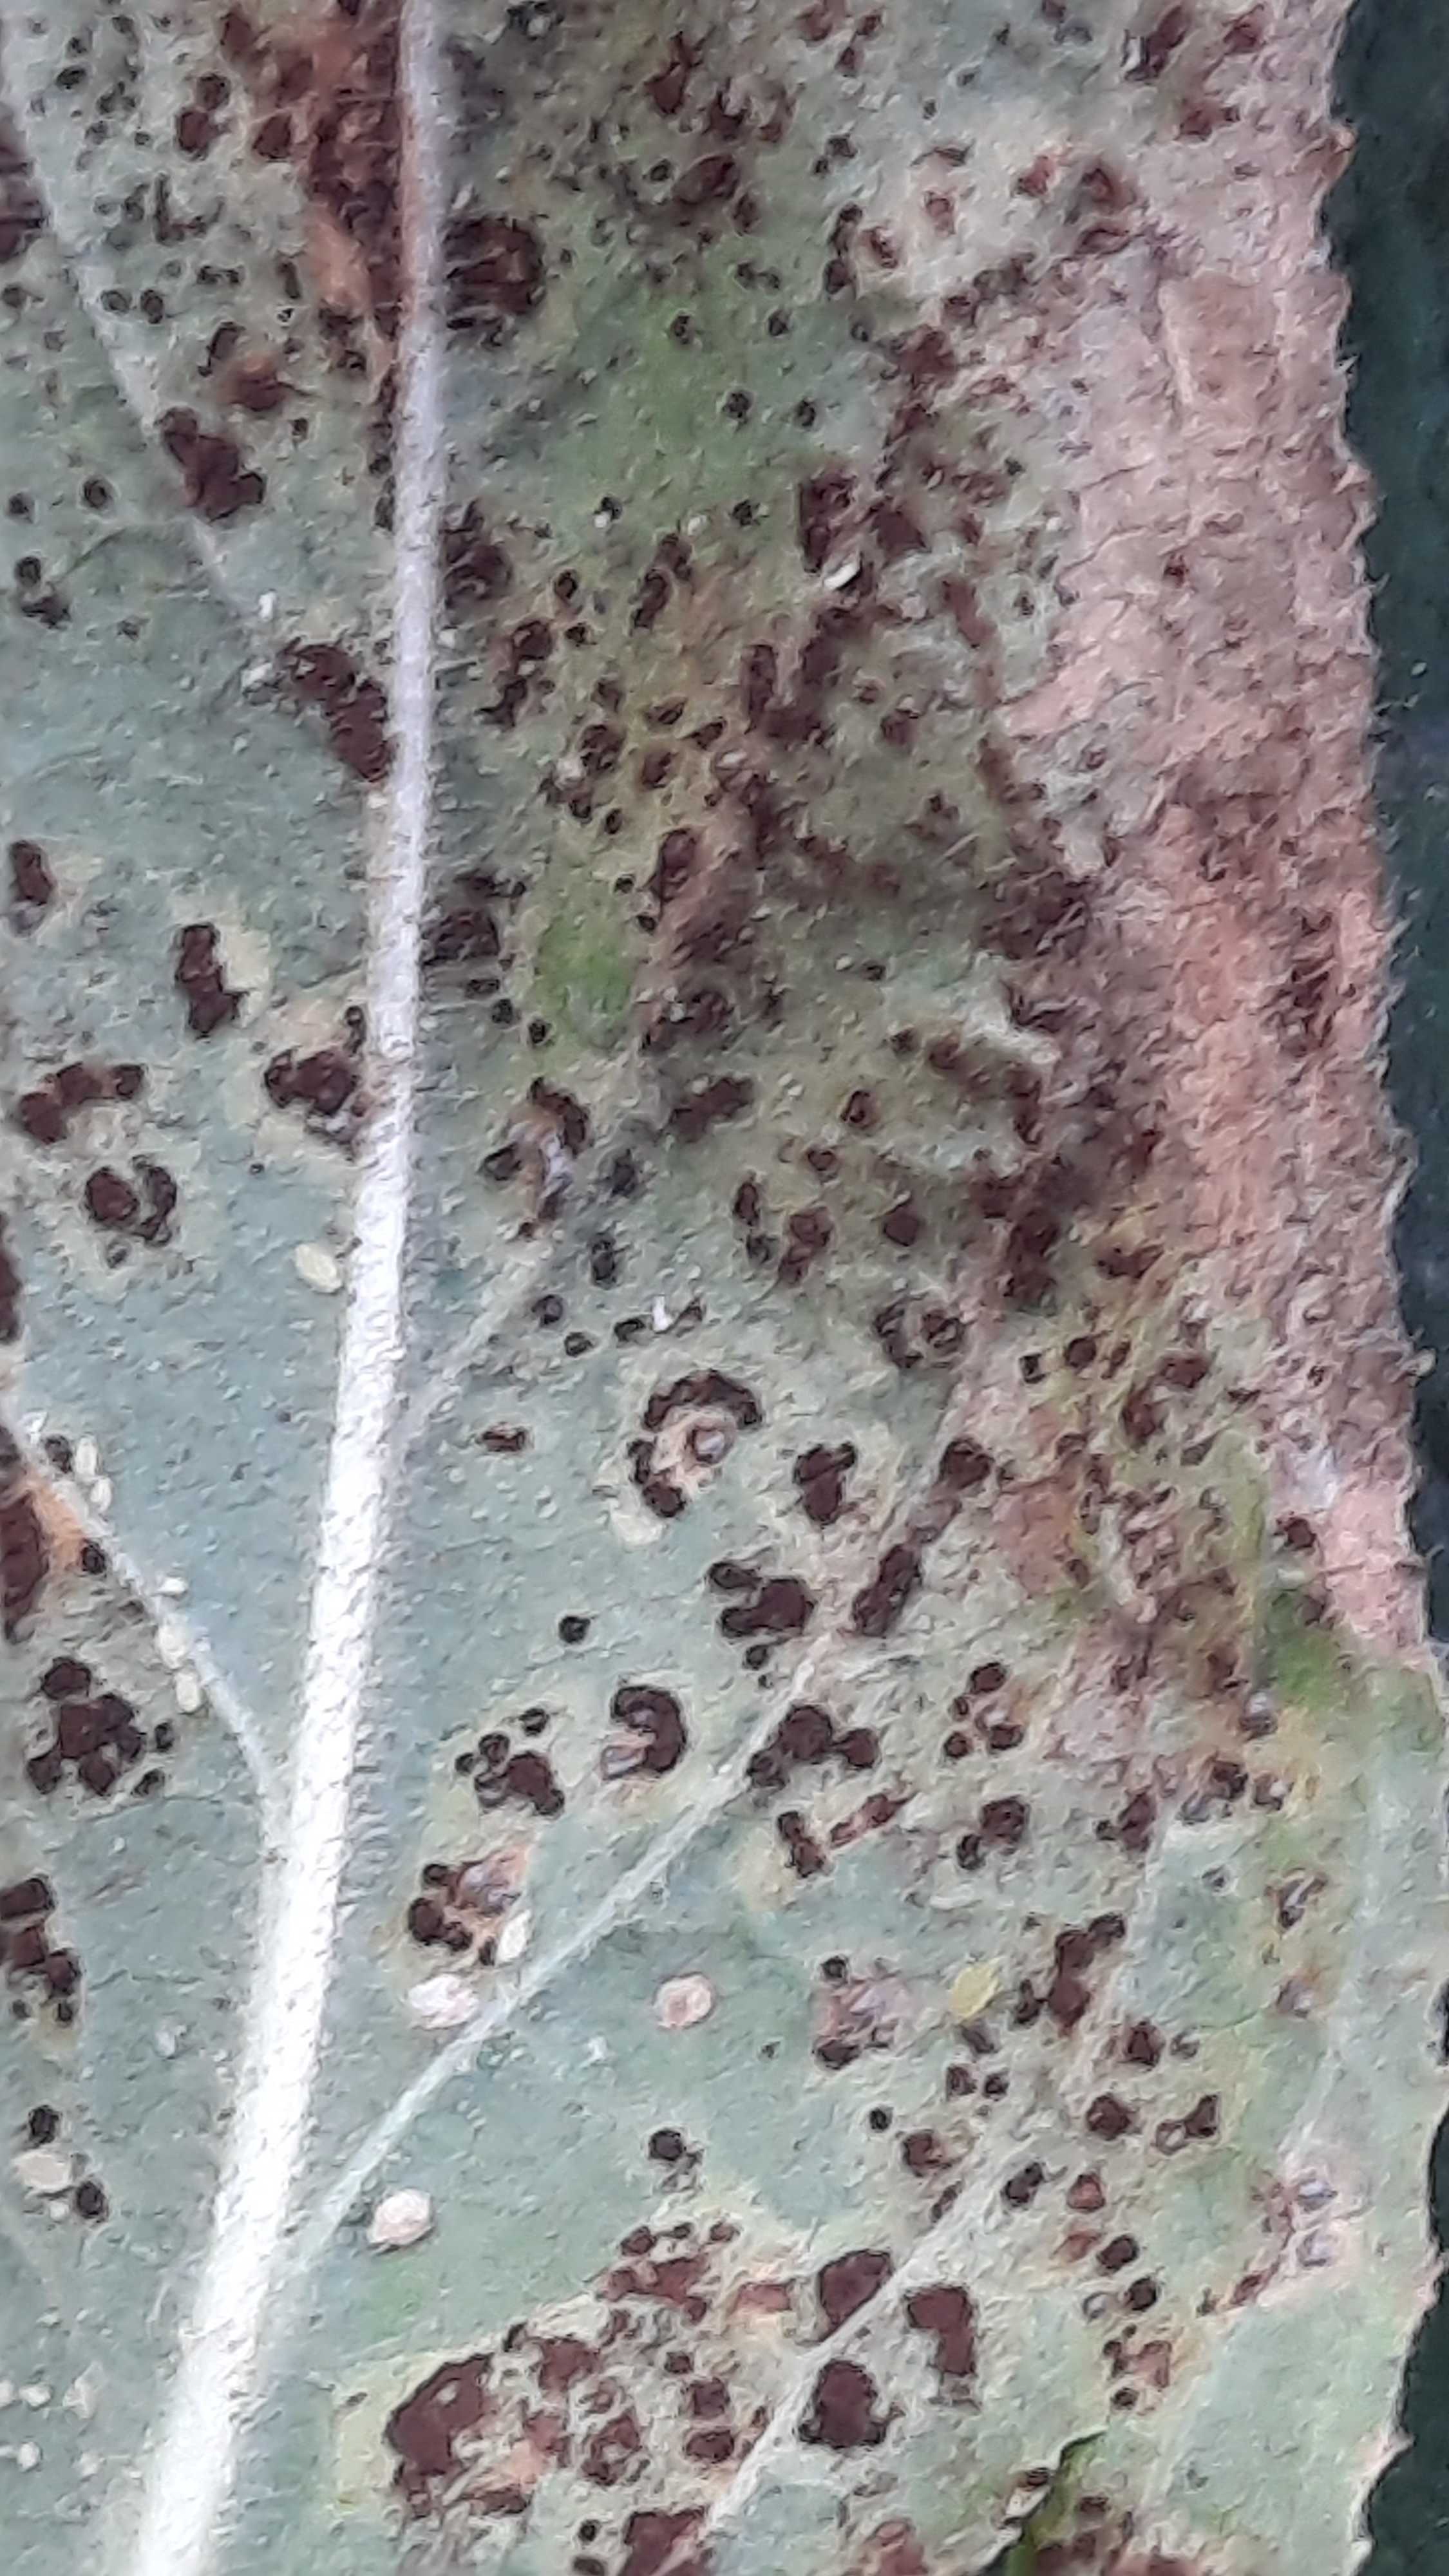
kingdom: Fungi
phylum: Basidiomycota
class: Pucciniomycetes
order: Pucciniales
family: Pucciniaceae
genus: Puccinia
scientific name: Puccinia
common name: tvecellerust
